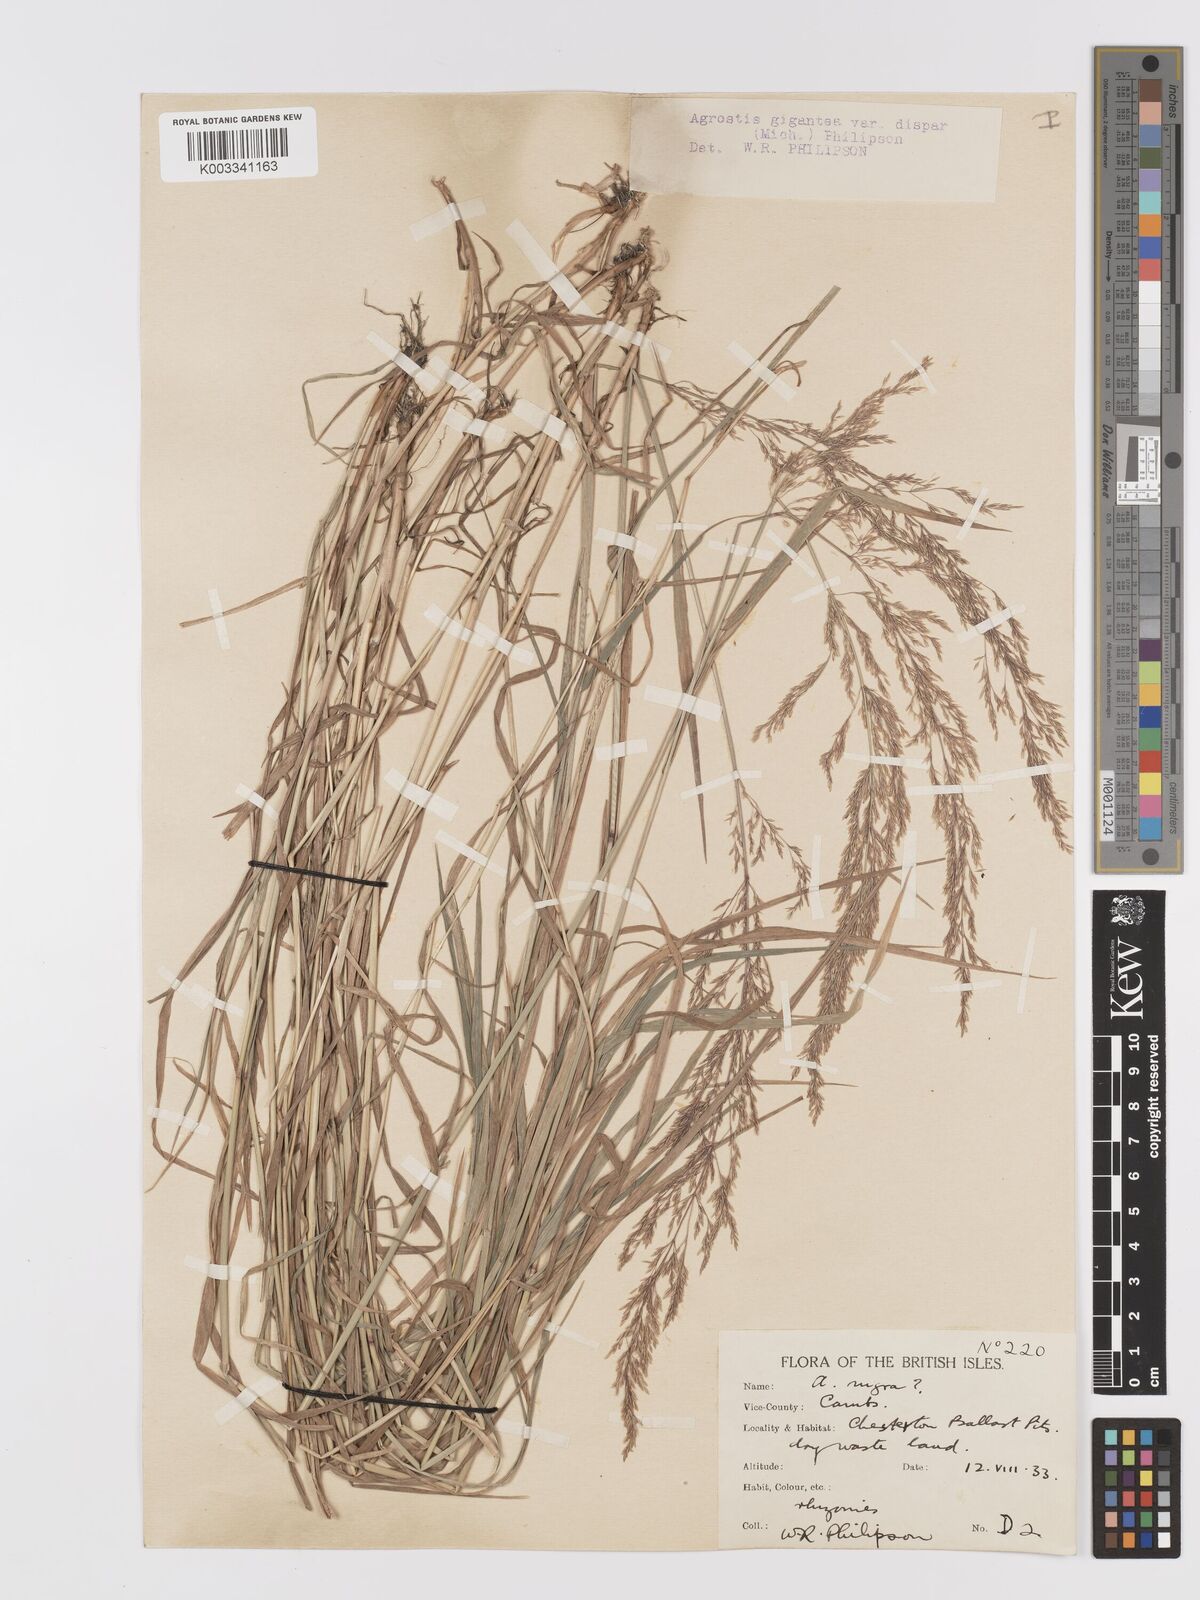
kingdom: Plantae
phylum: Tracheophyta
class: Liliopsida
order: Poales
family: Poaceae
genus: Agrostis
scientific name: Agrostis gigantea
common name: Black bent
